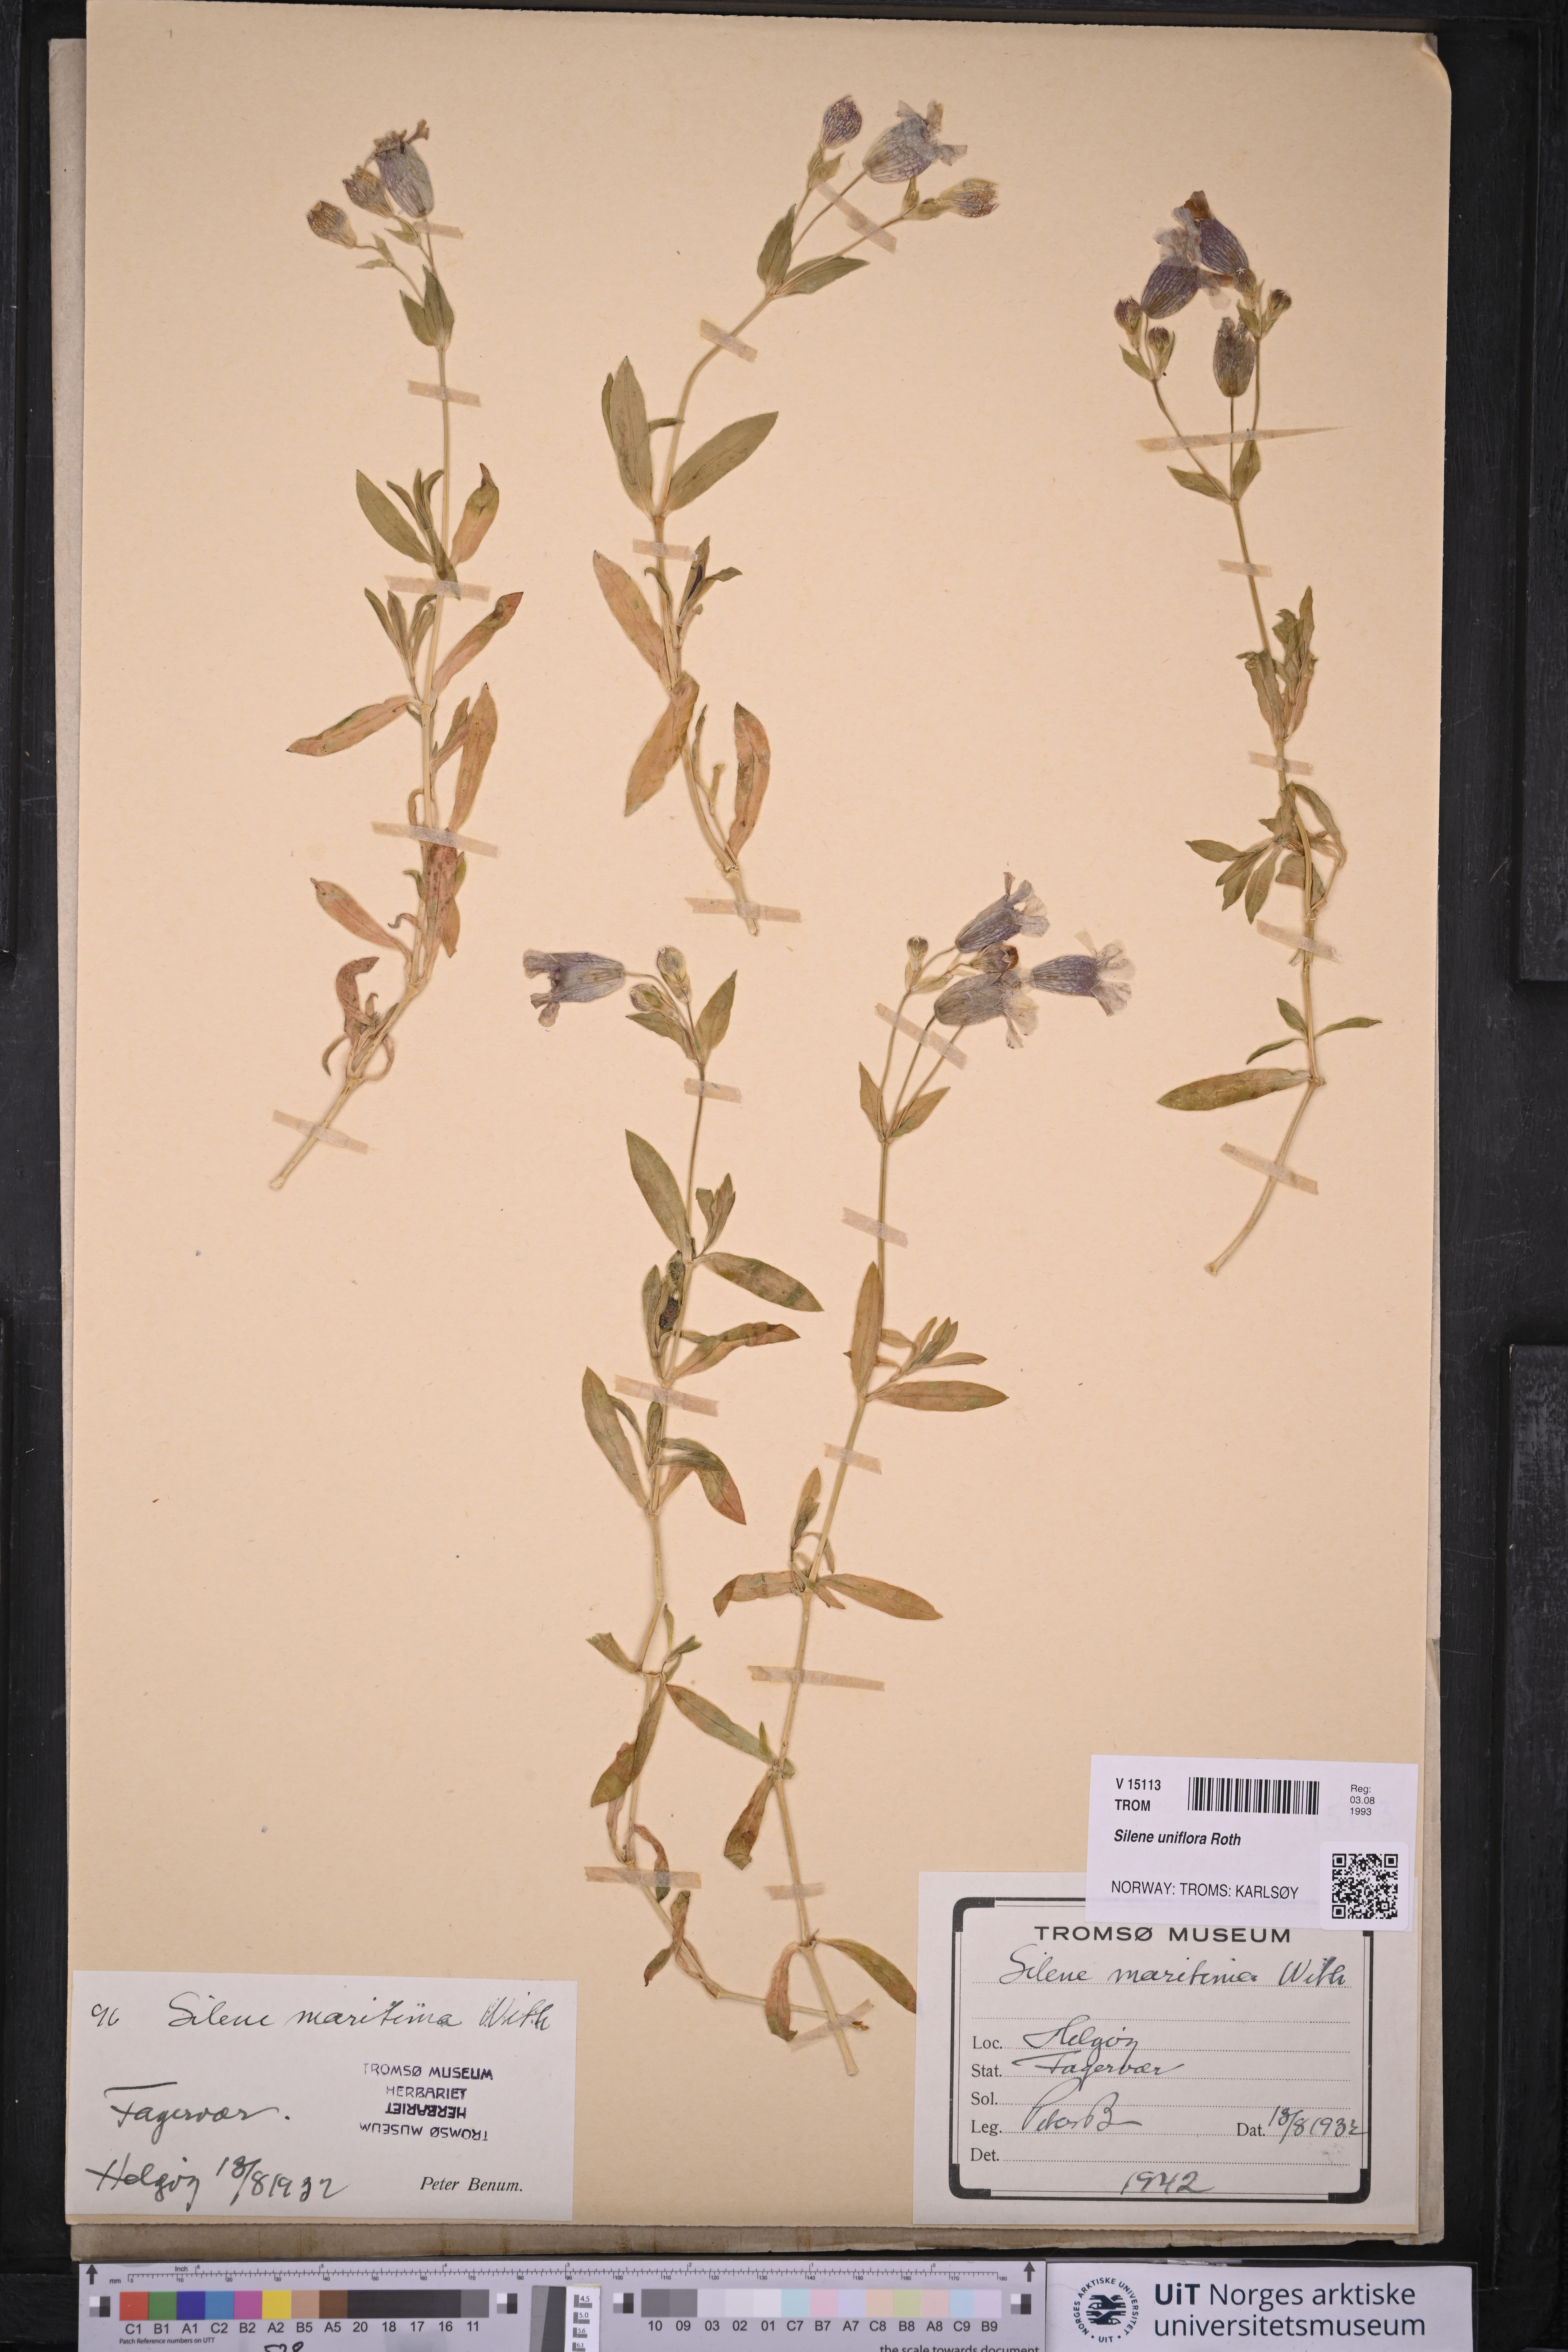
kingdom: Plantae
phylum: Tracheophyta
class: Magnoliopsida
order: Caryophyllales
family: Caryophyllaceae
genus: Silene
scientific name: Silene uniflora
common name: Sea campion
